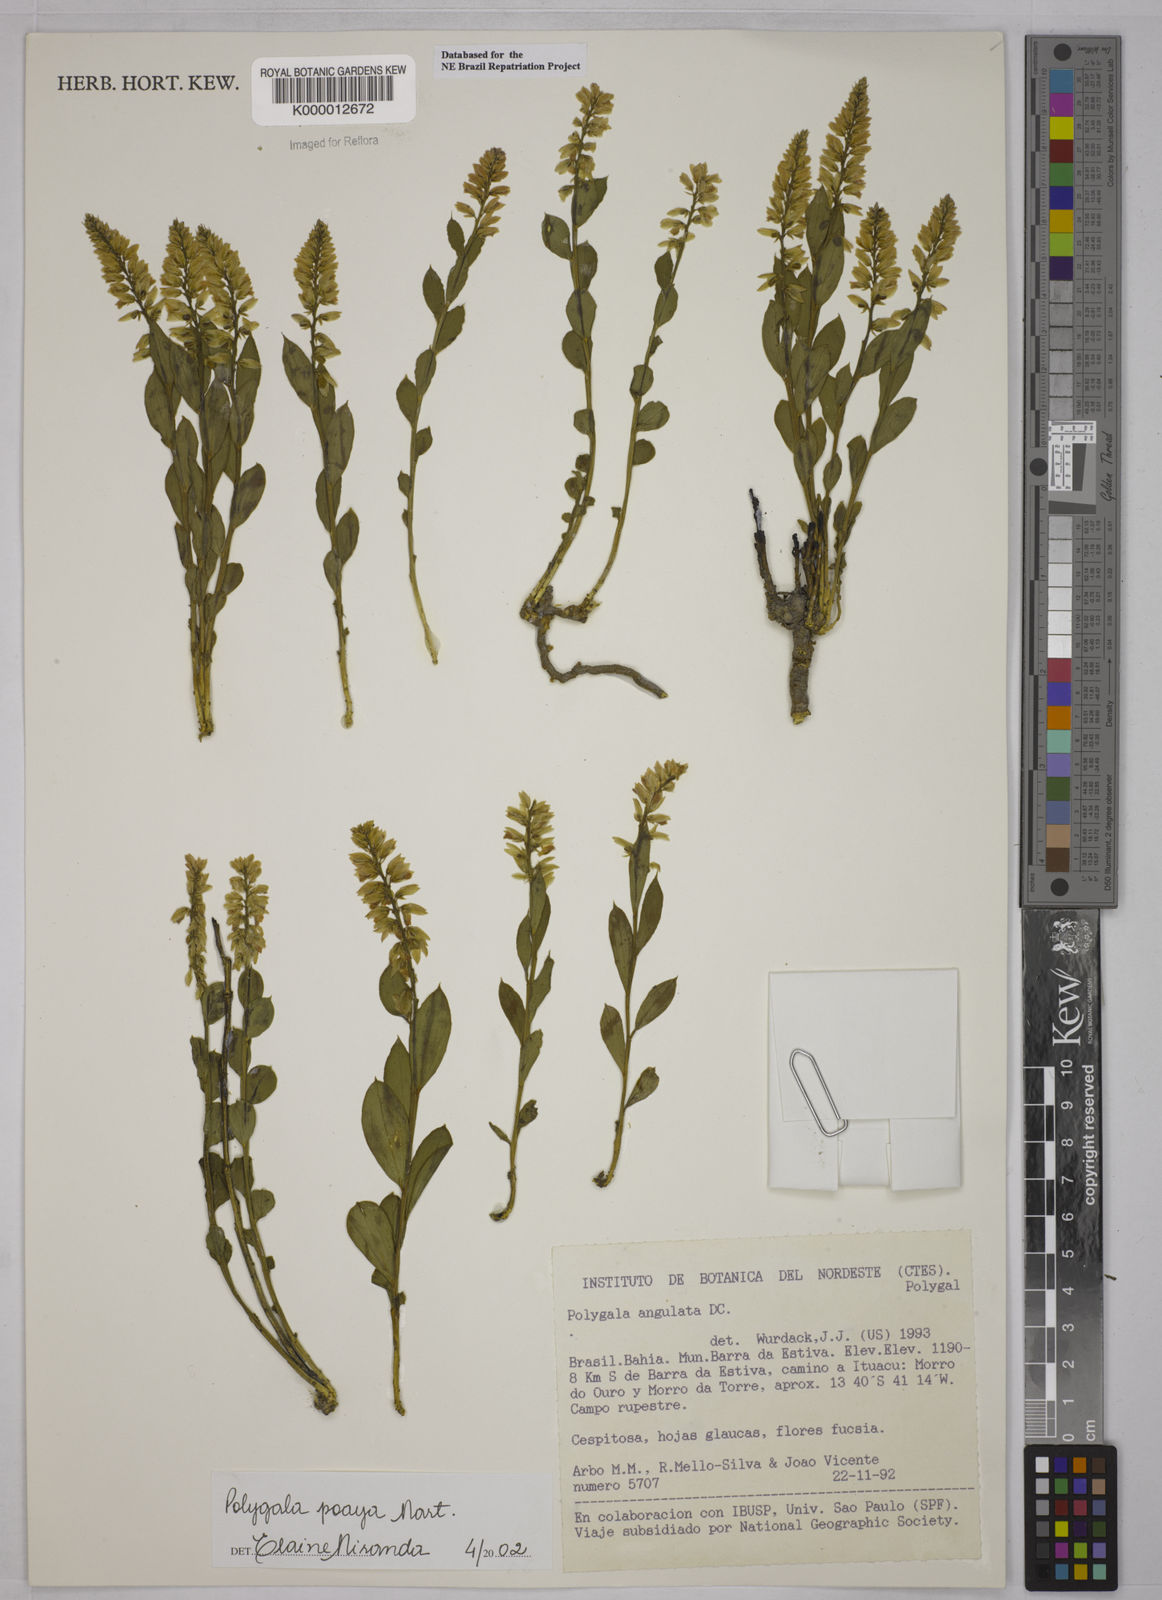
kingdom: Plantae
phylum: Tracheophyta
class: Magnoliopsida
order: Fabales
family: Polygalaceae
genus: Polygala
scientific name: Polygala poaya
